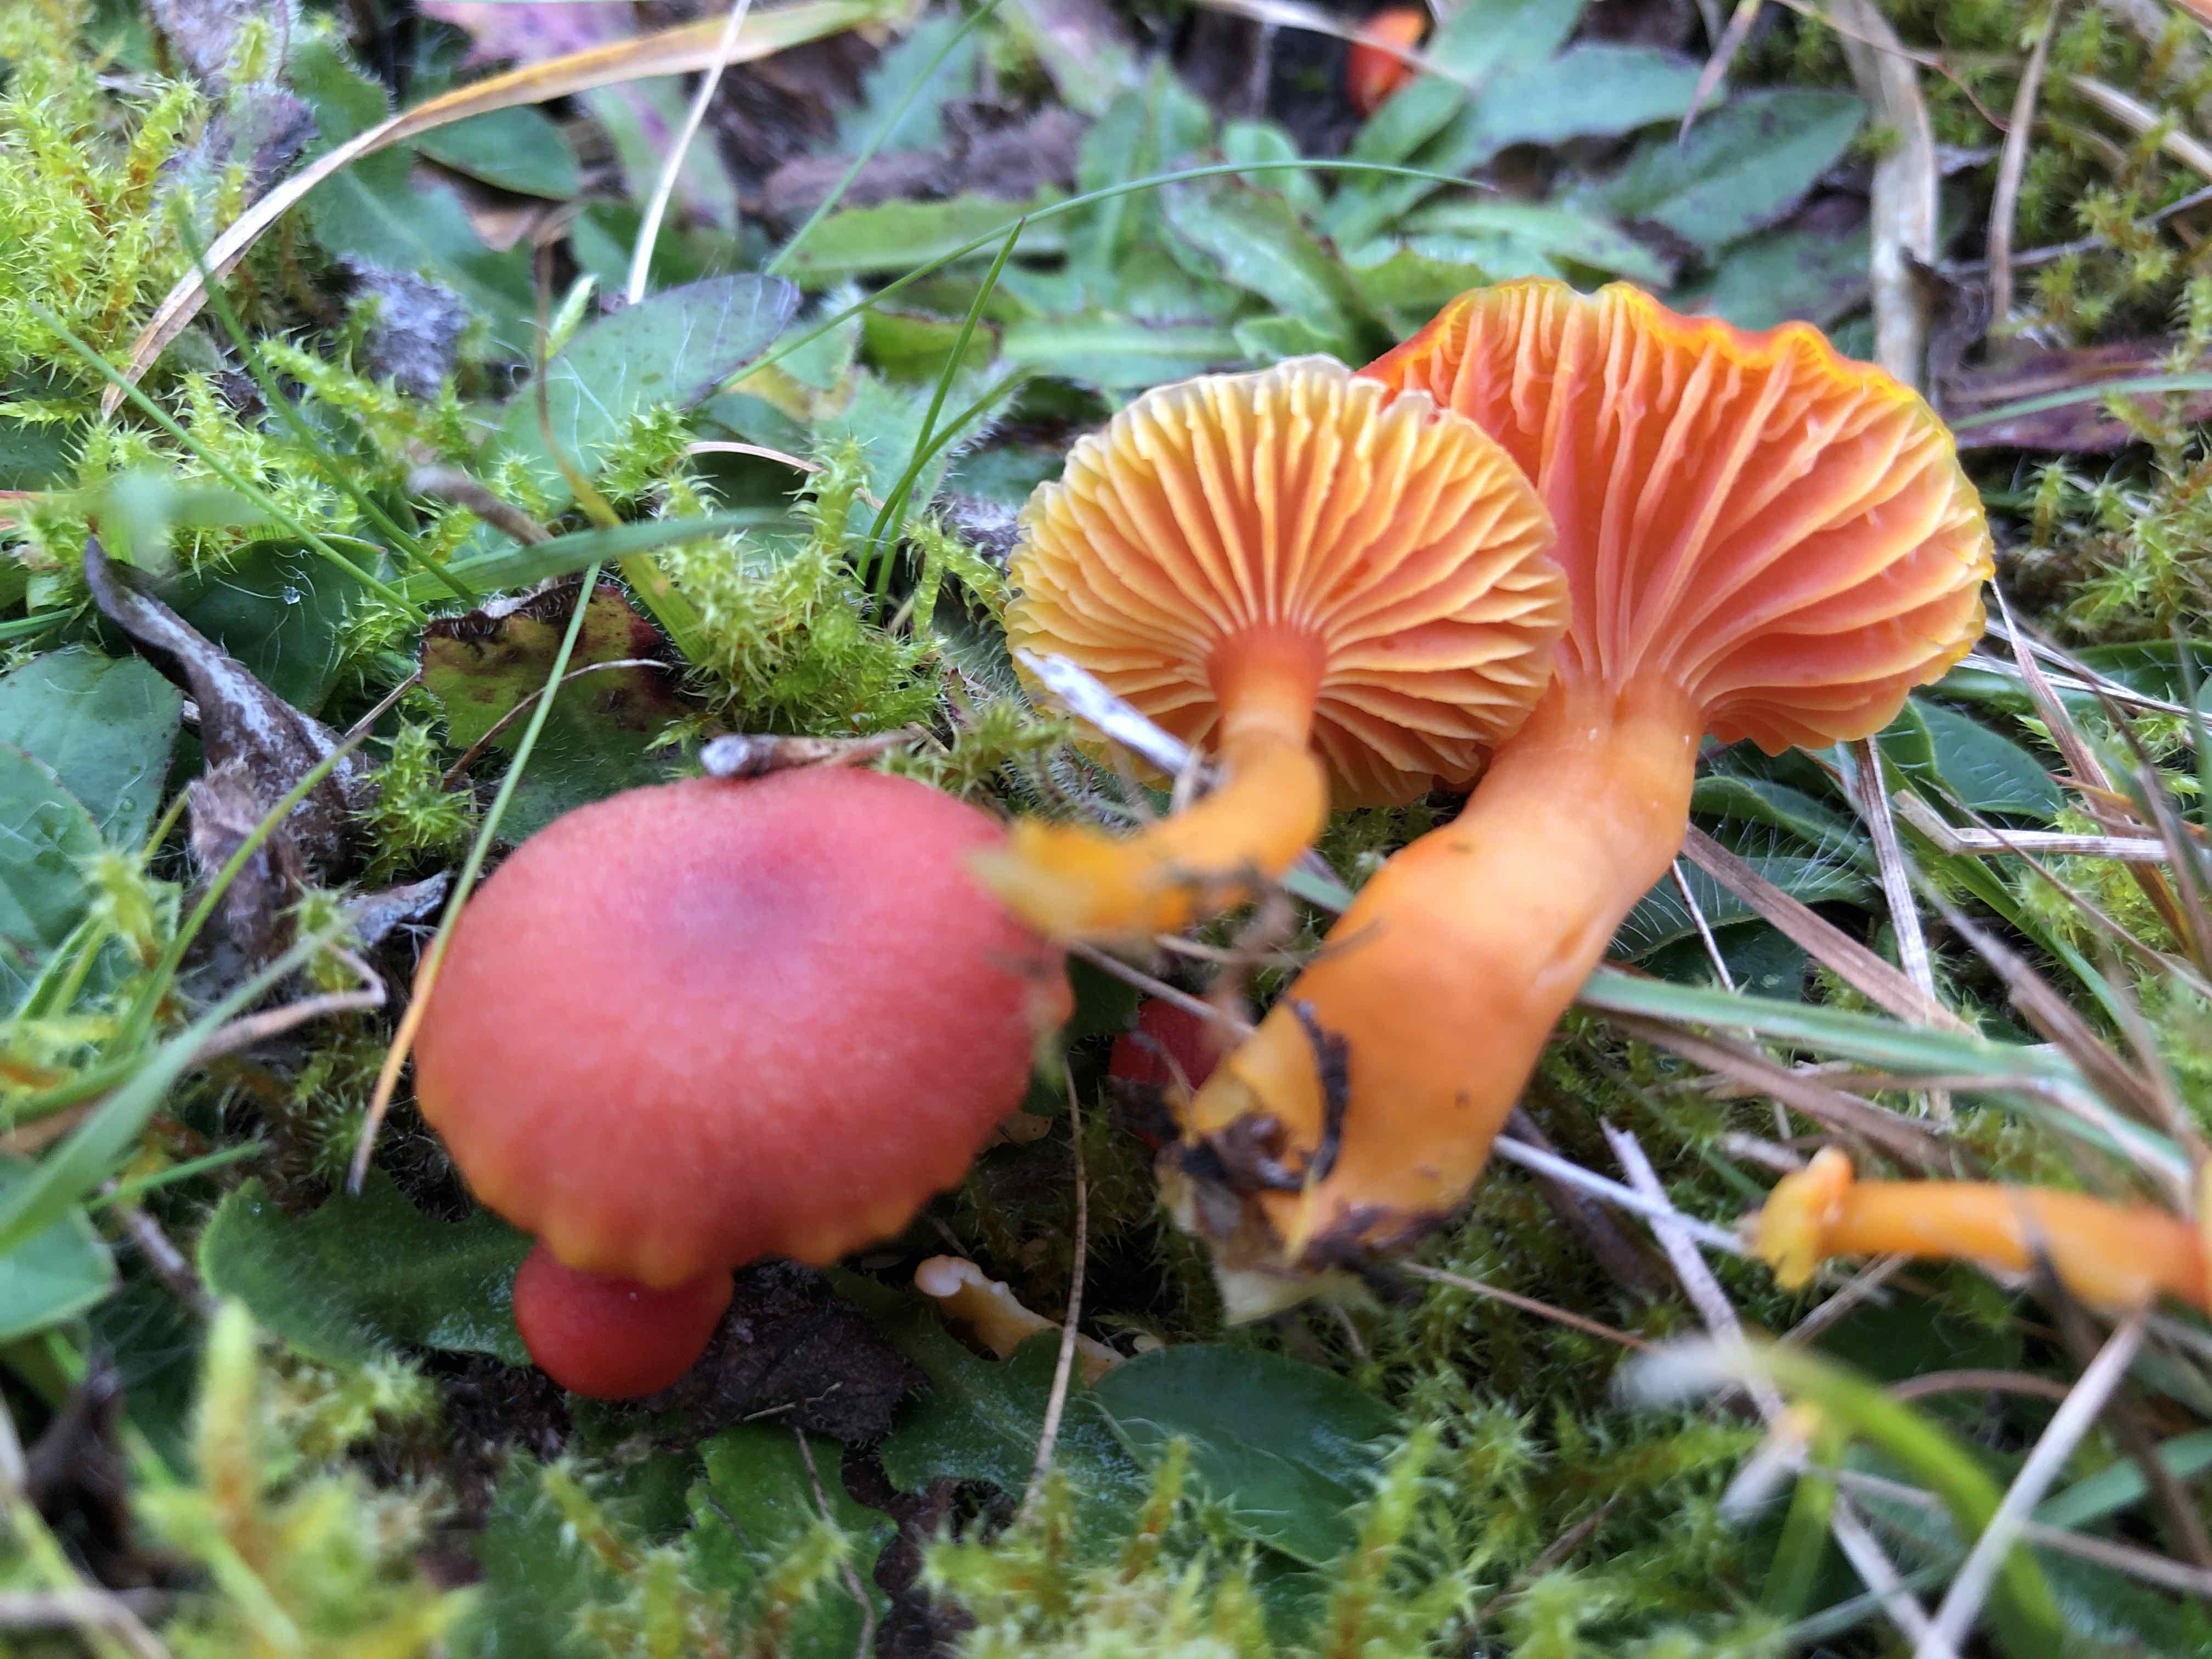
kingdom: Fungi
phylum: Basidiomycota
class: Agaricomycetes
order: Agaricales
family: Hygrophoraceae
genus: Hygrocybe
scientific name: Hygrocybe miniata
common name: mønje-vokshat
